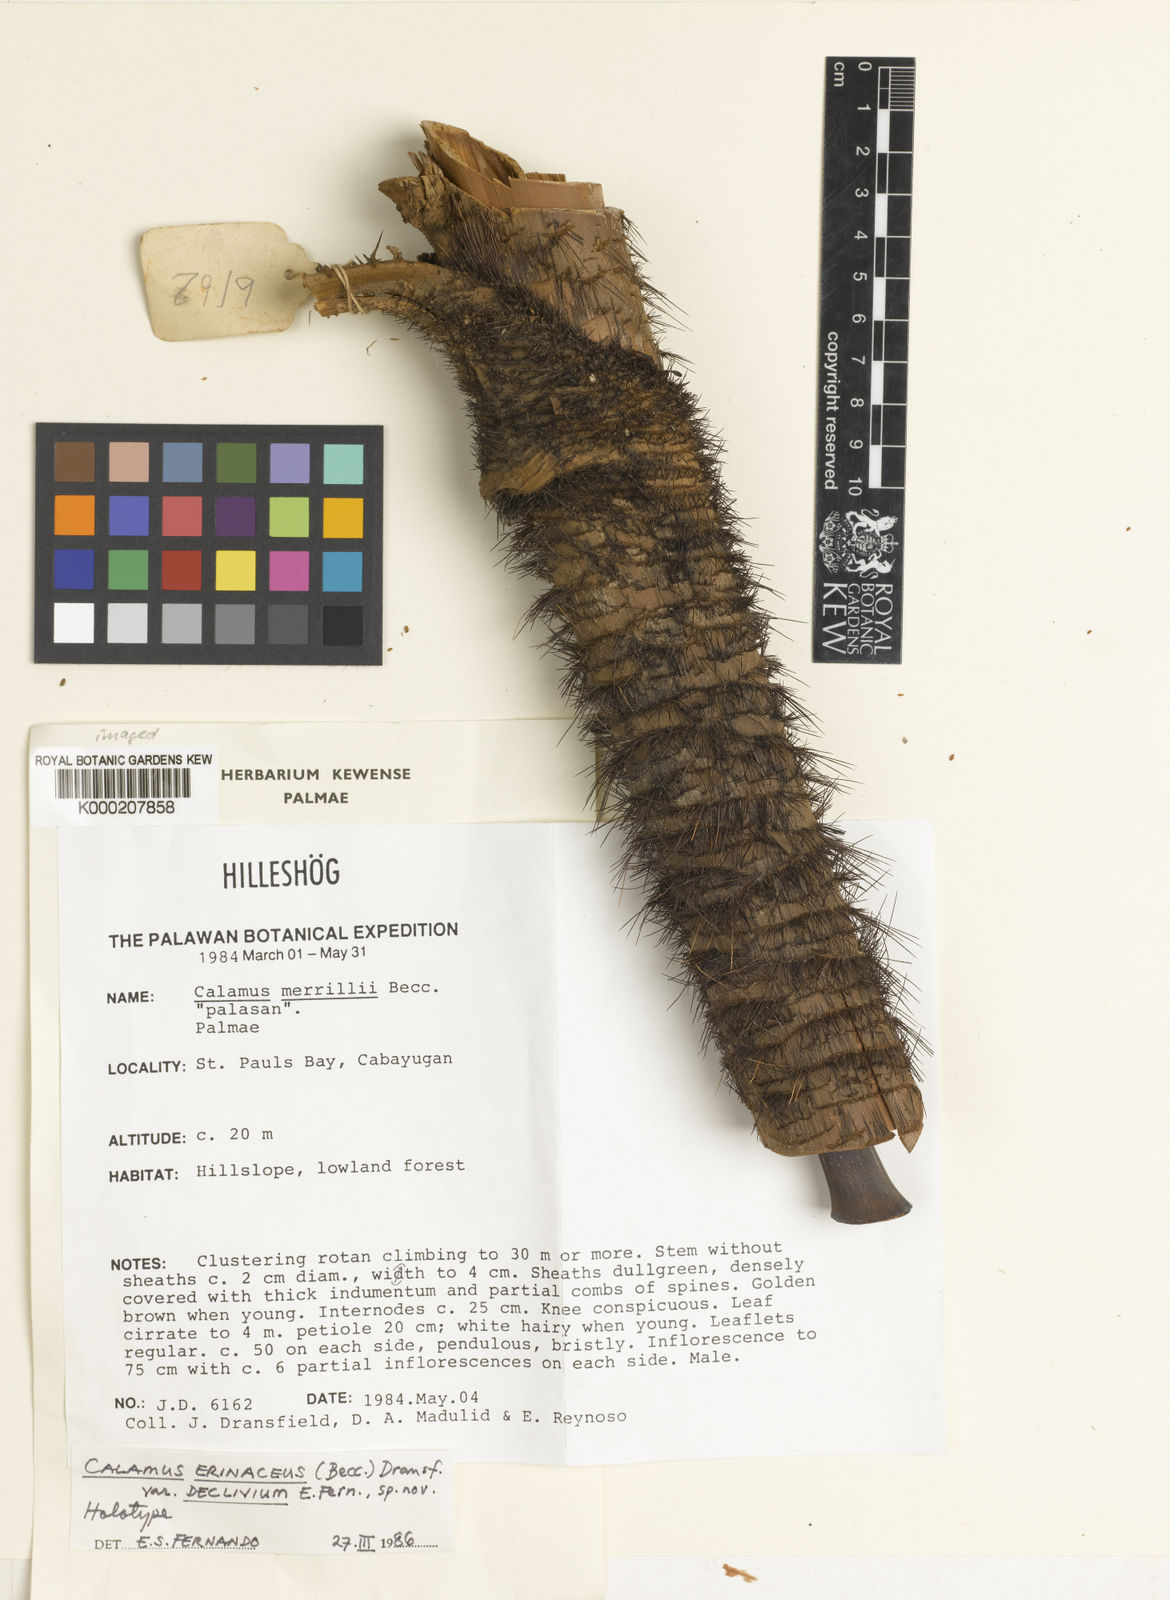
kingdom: Plantae
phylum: Tracheophyta
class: Liliopsida
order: Arecales
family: Arecaceae
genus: Calamus
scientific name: Calamus
